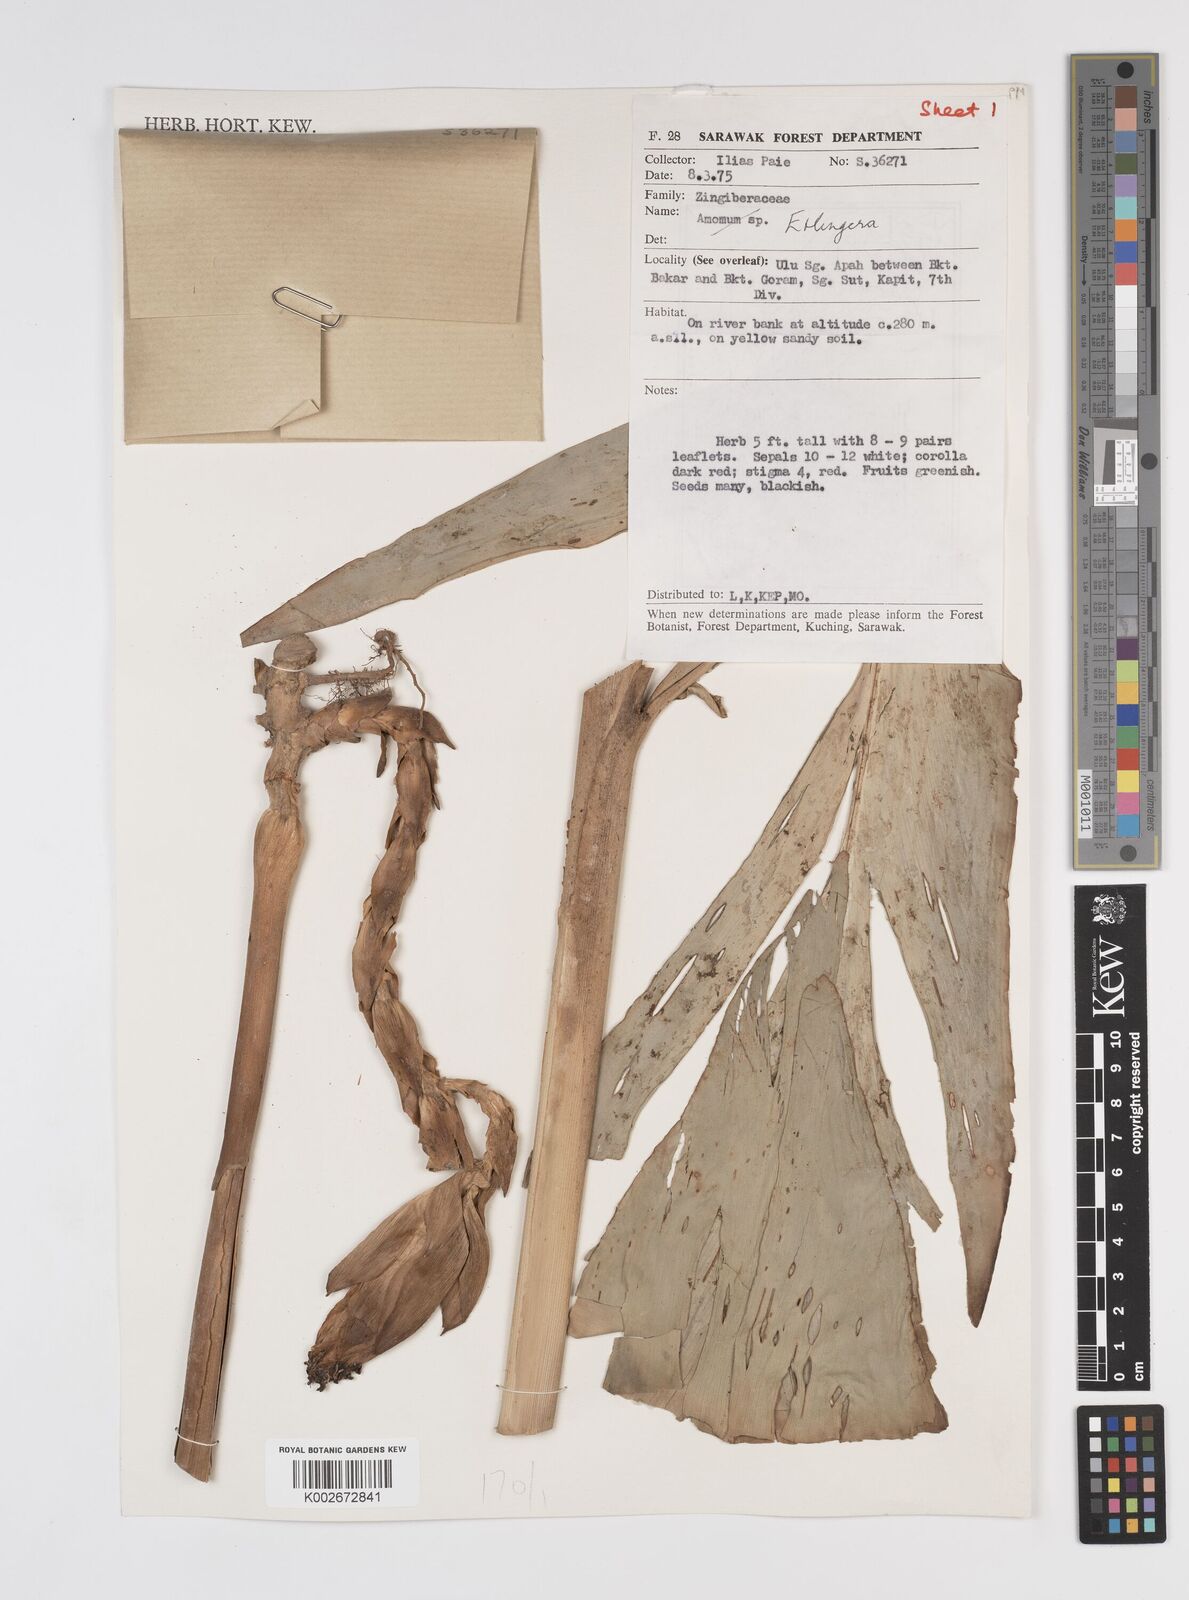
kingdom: Plantae
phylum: Tracheophyta
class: Liliopsida
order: Zingiberales
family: Zingiberaceae
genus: Etlingera
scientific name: Etlingera
